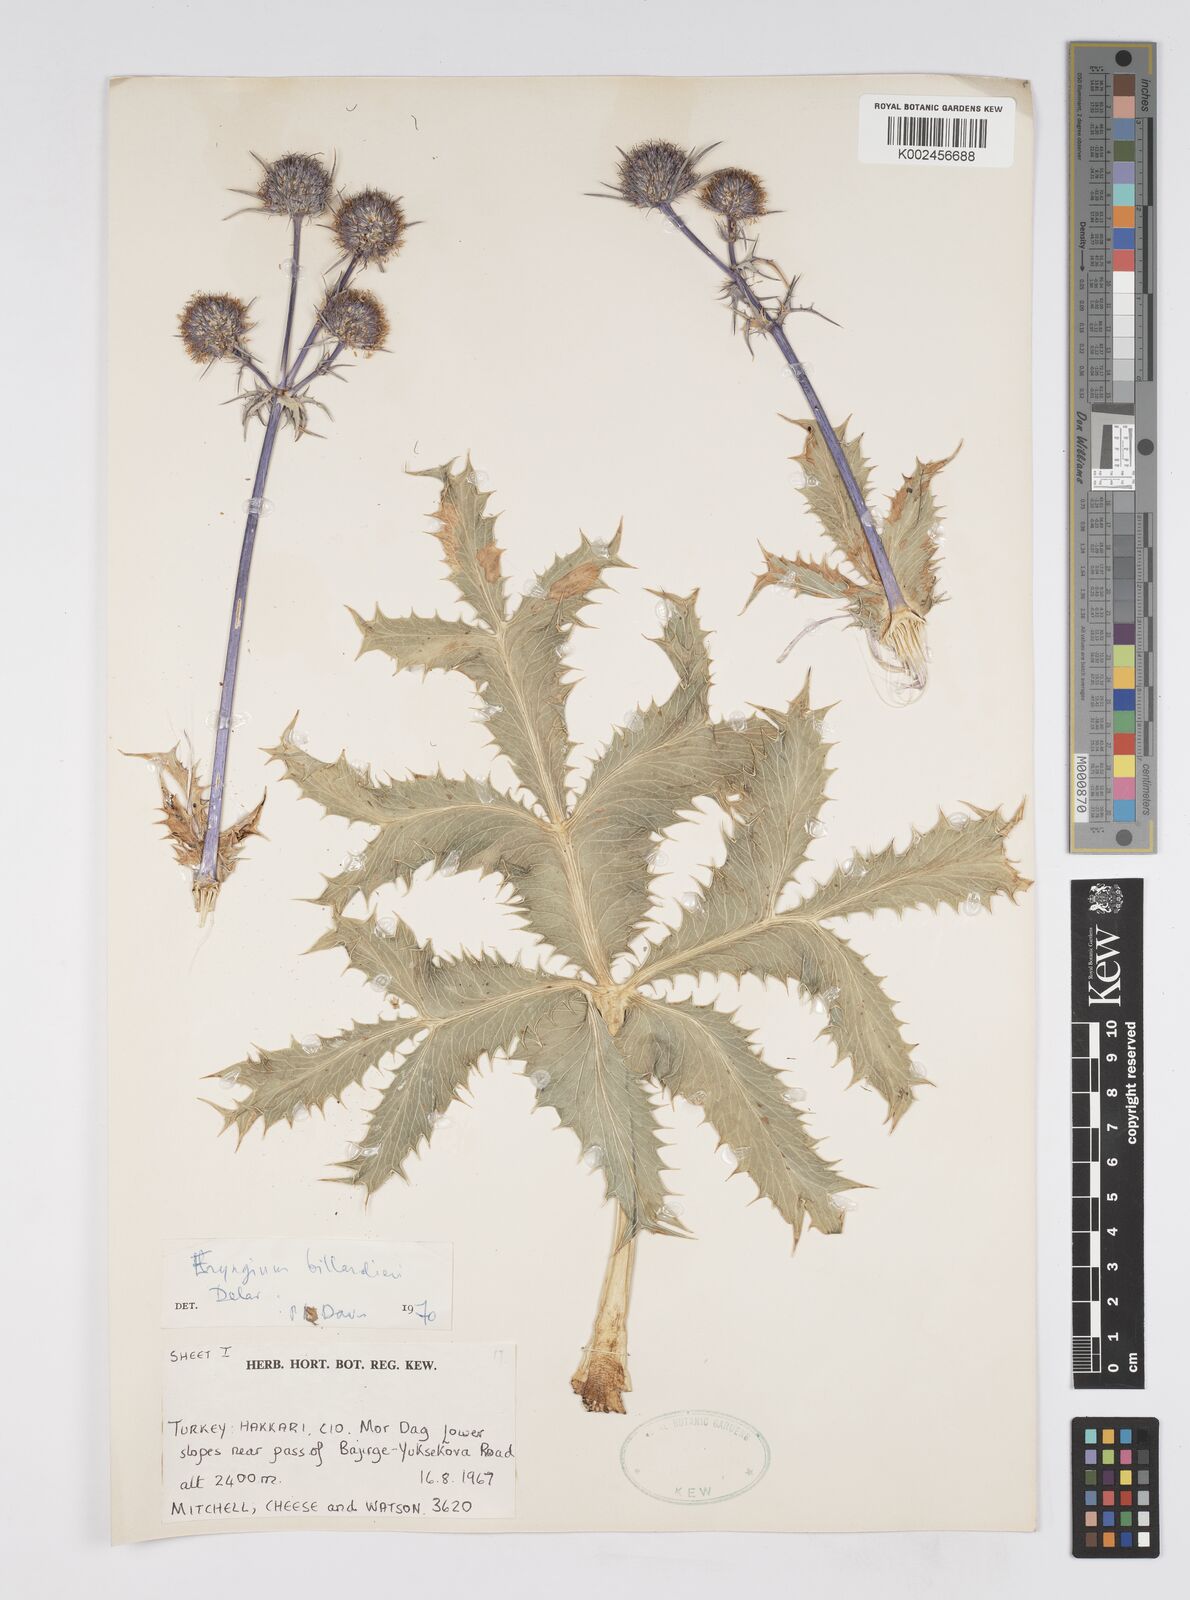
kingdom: Plantae
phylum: Tracheophyta
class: Magnoliopsida
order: Apiales
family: Apiaceae
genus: Eryngium
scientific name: Eryngium billardierei
